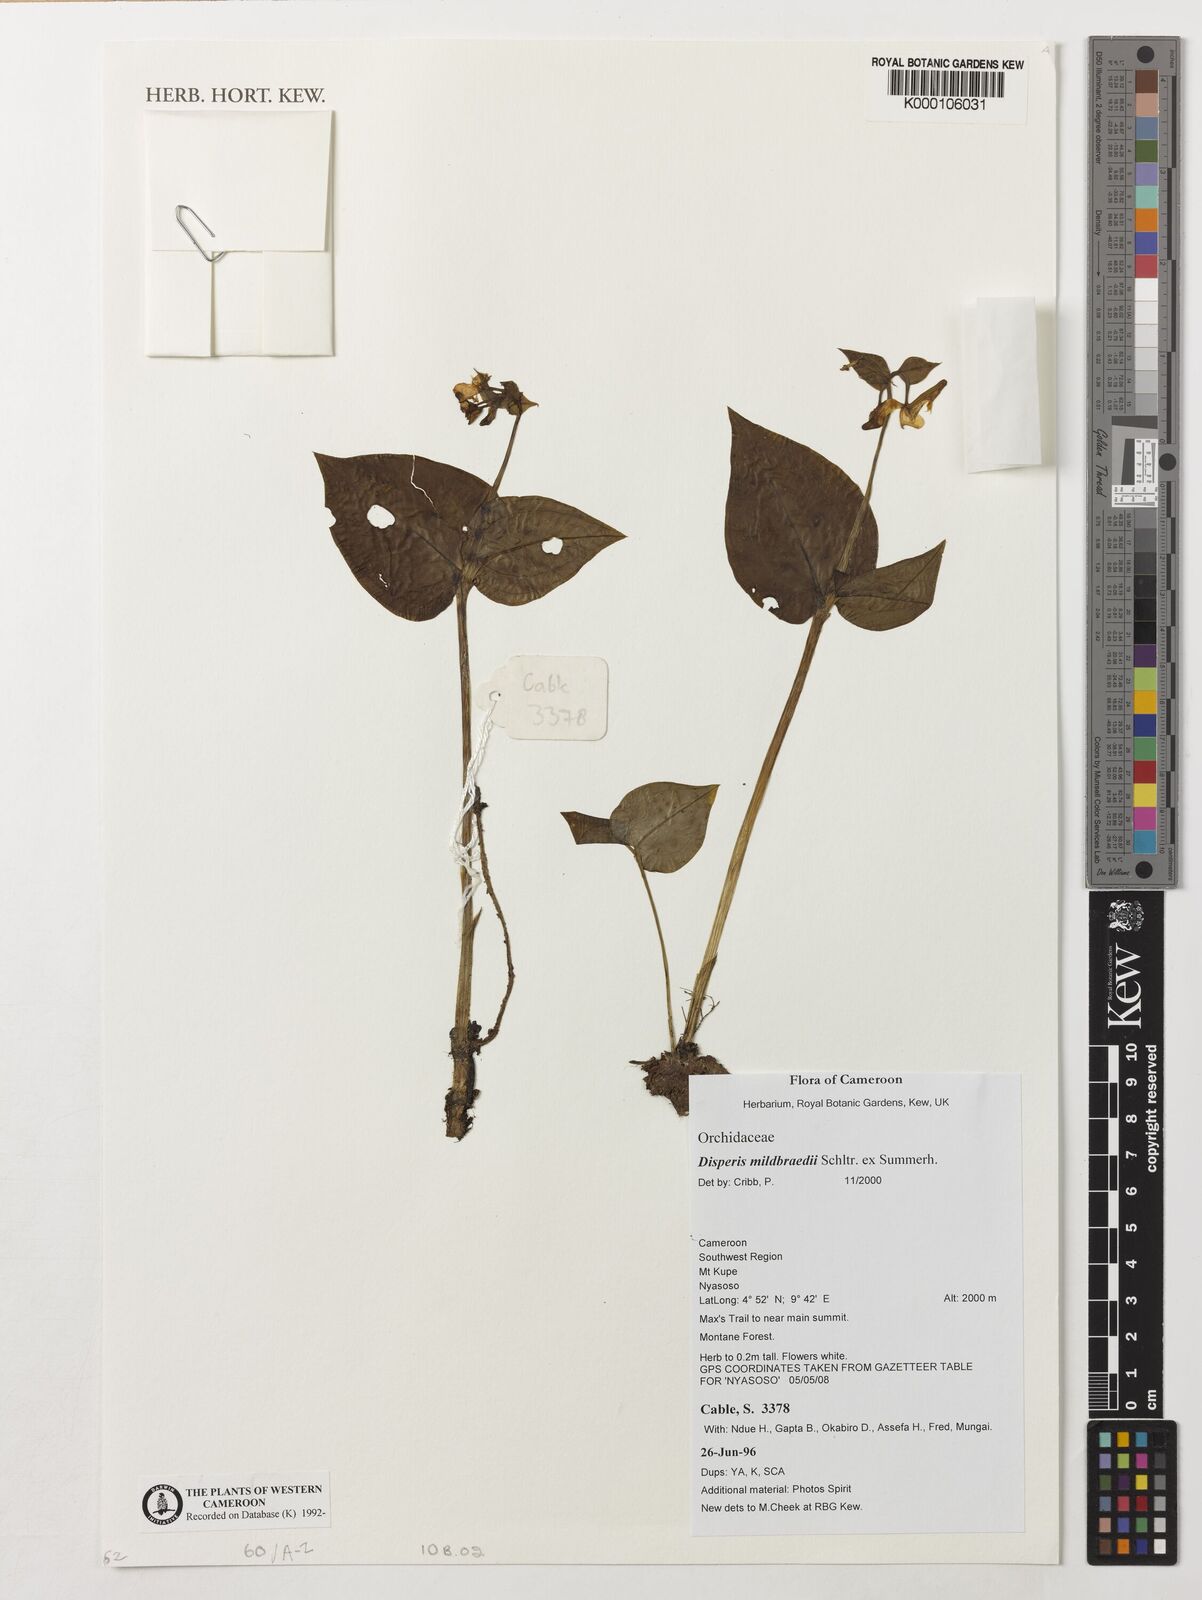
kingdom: Plantae
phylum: Tracheophyta
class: Liliopsida
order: Asparagales
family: Orchidaceae
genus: Disperis
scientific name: Disperis mildbraedii
